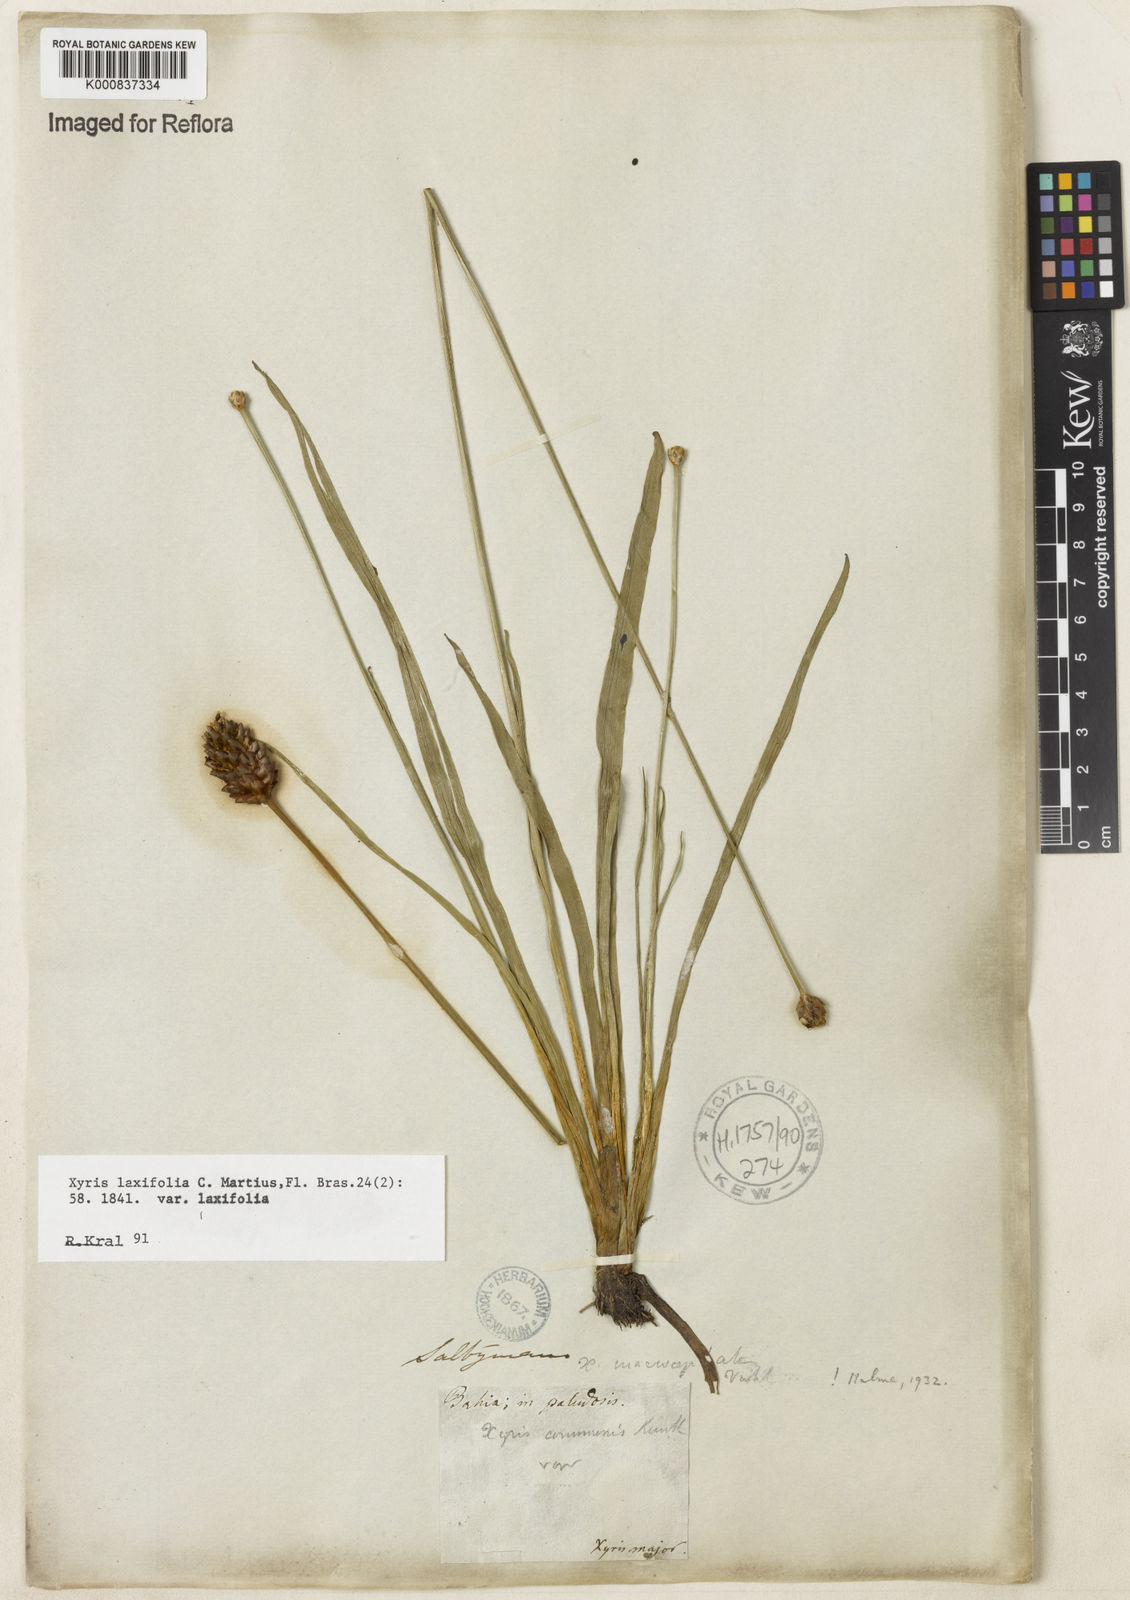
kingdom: Plantae
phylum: Tracheophyta
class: Liliopsida
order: Poales
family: Xyridaceae
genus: Xyris
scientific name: Xyris laxifolia
